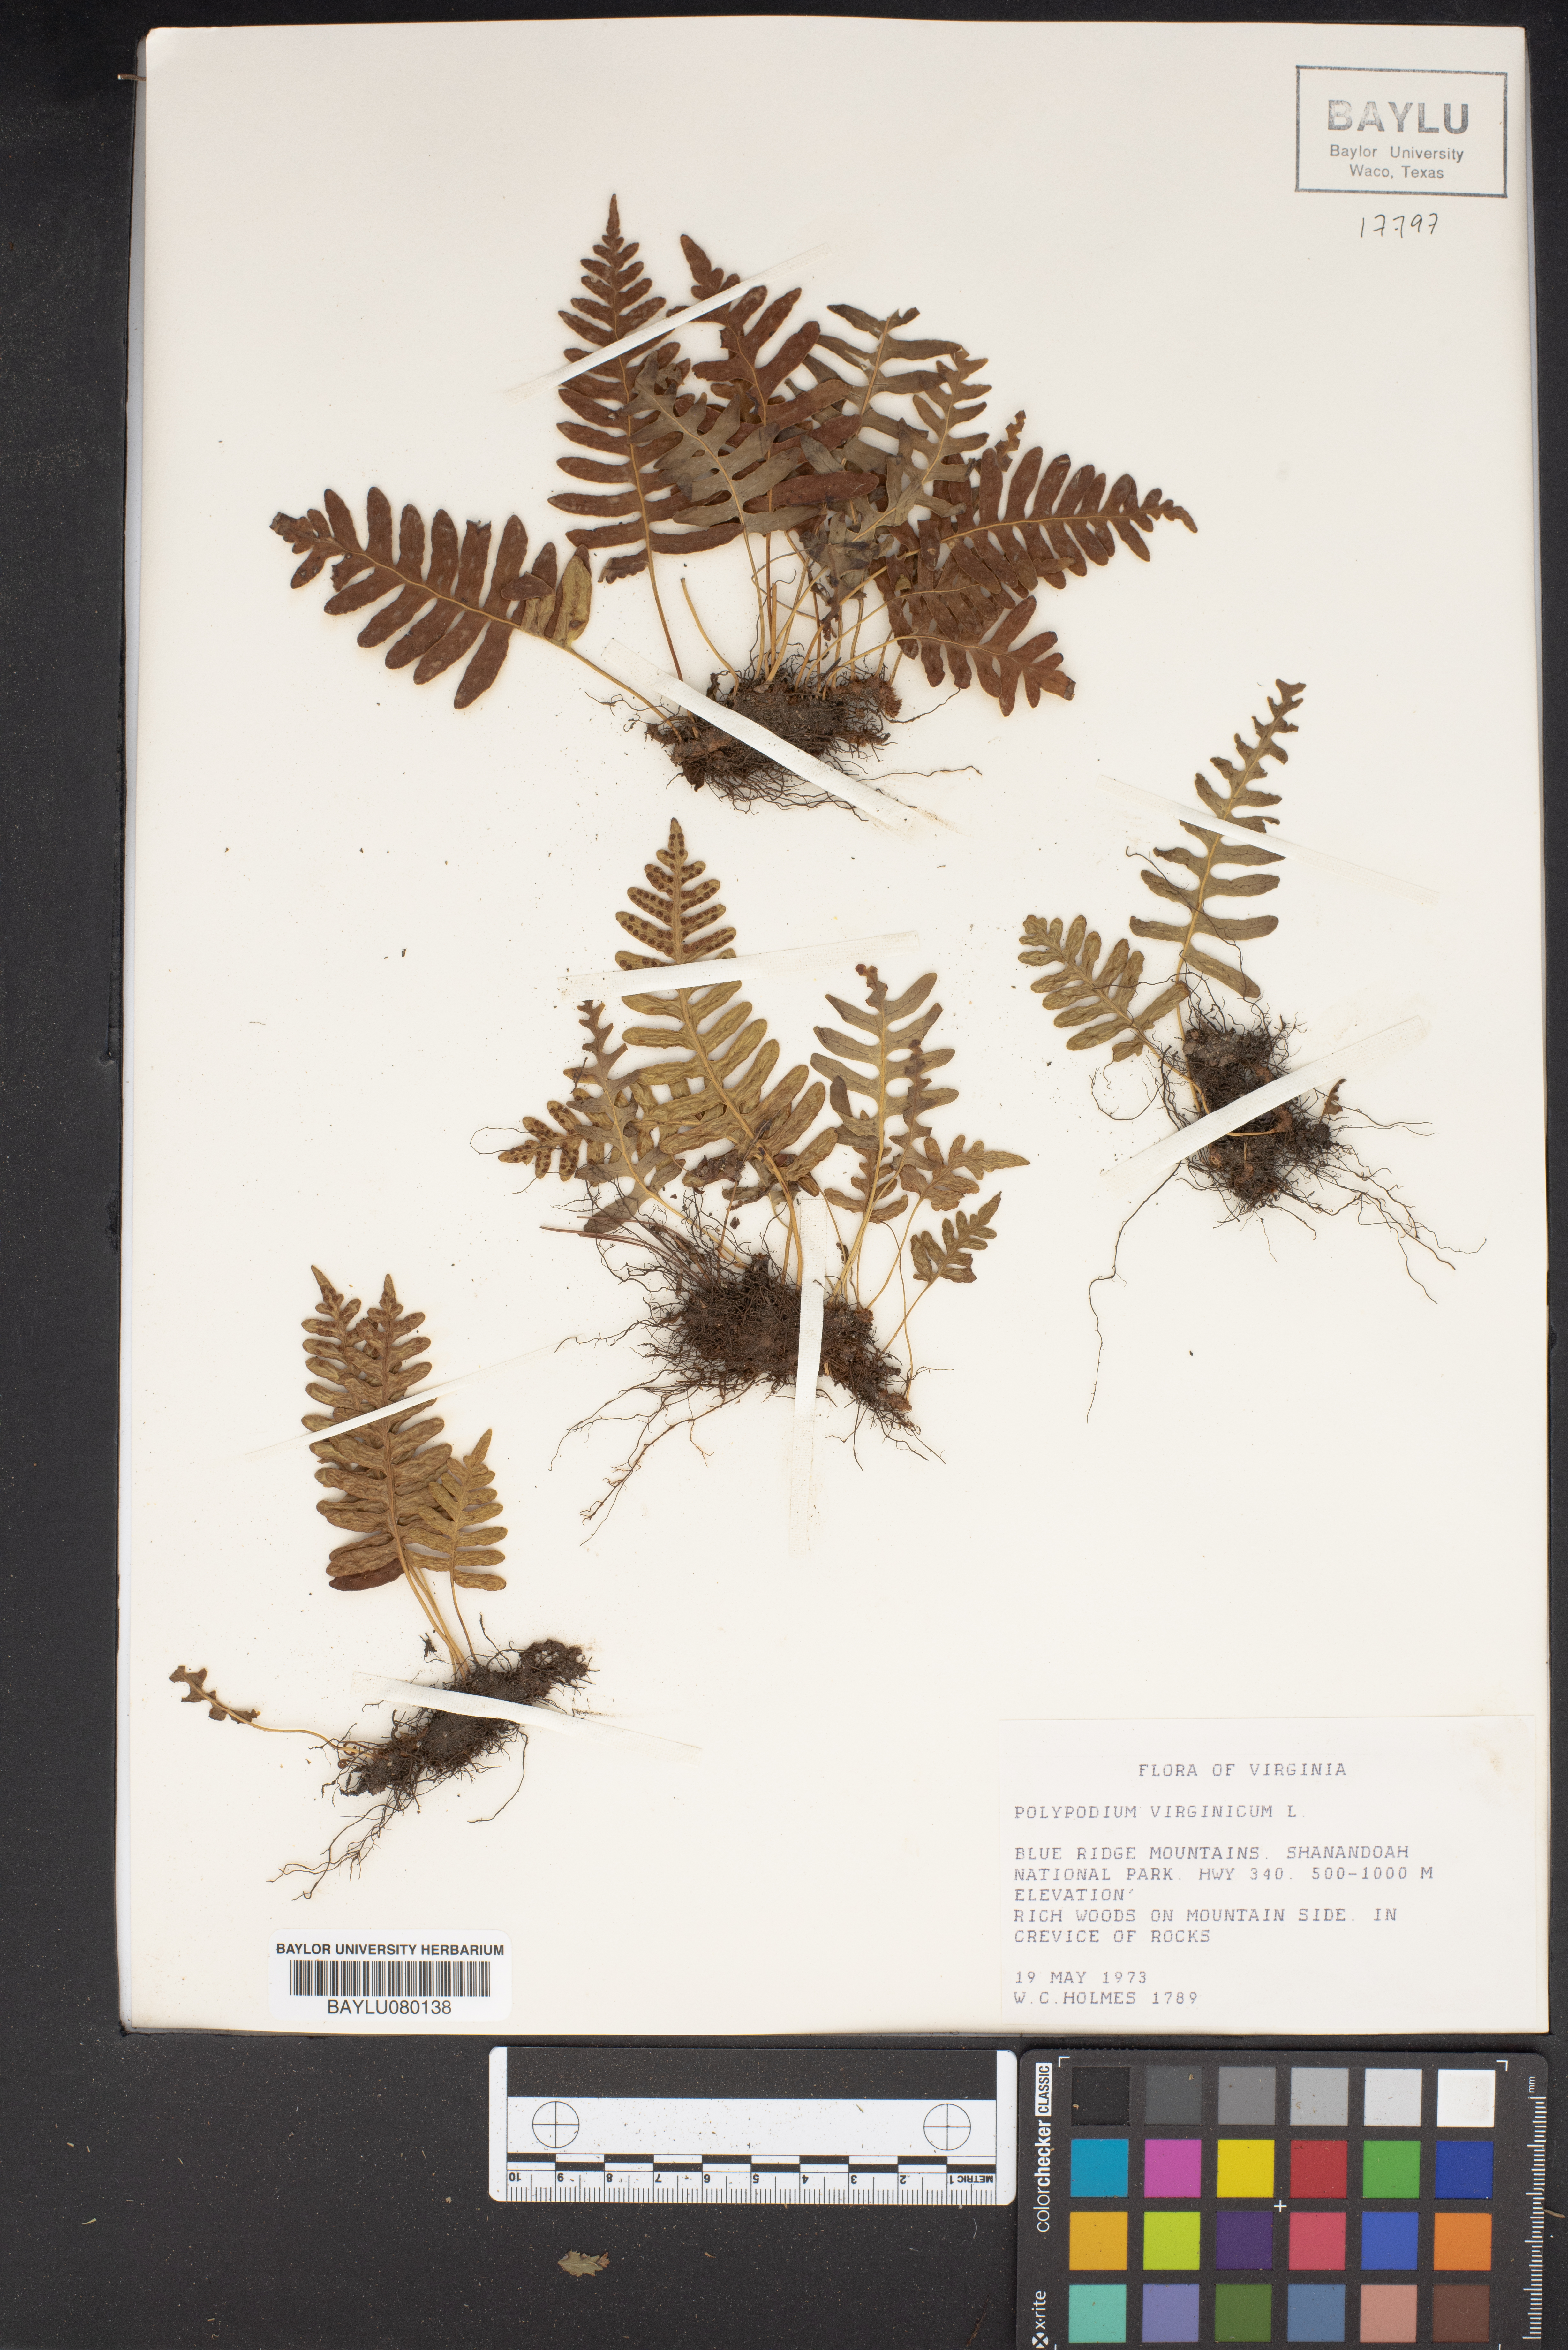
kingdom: Plantae
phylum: Tracheophyta
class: Polypodiopsida
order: Polypodiales
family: Polypodiaceae
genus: Polypodium
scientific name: Polypodium virginianum
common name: American wall fern
